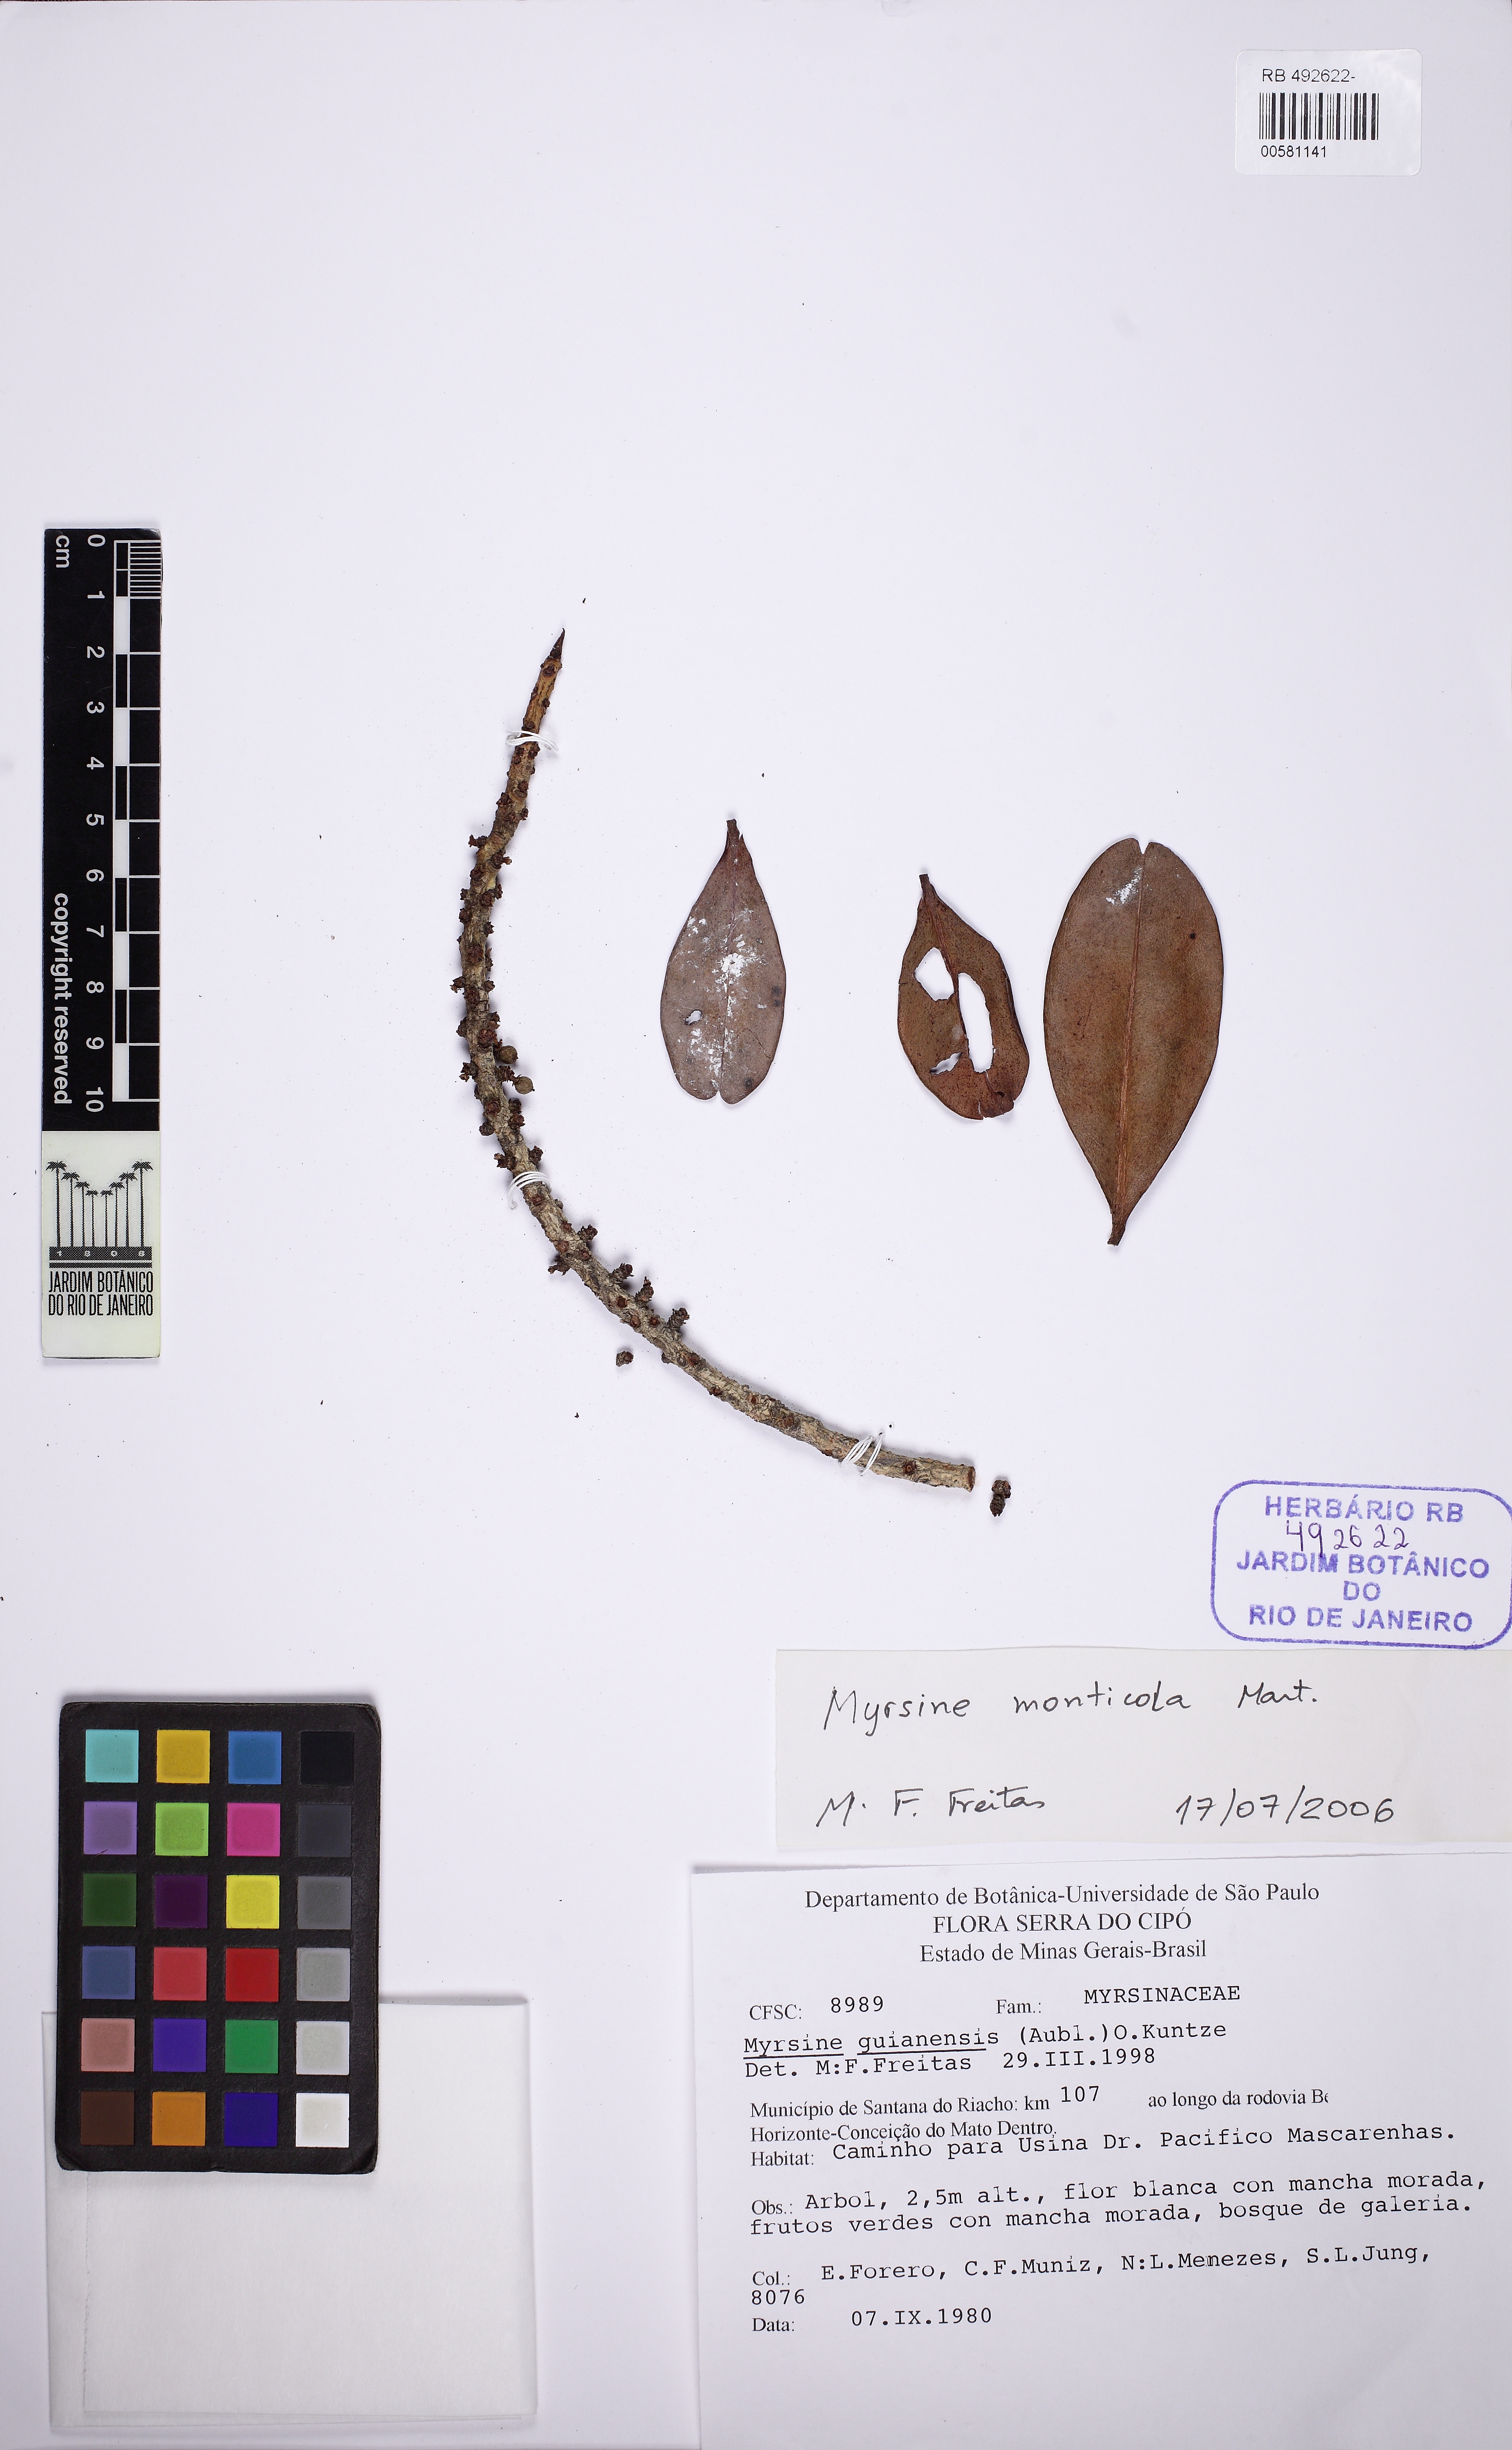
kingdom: Plantae
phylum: Tracheophyta
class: Magnoliopsida
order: Ericales
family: Primulaceae
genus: Myrsine
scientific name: Myrsine monticola
